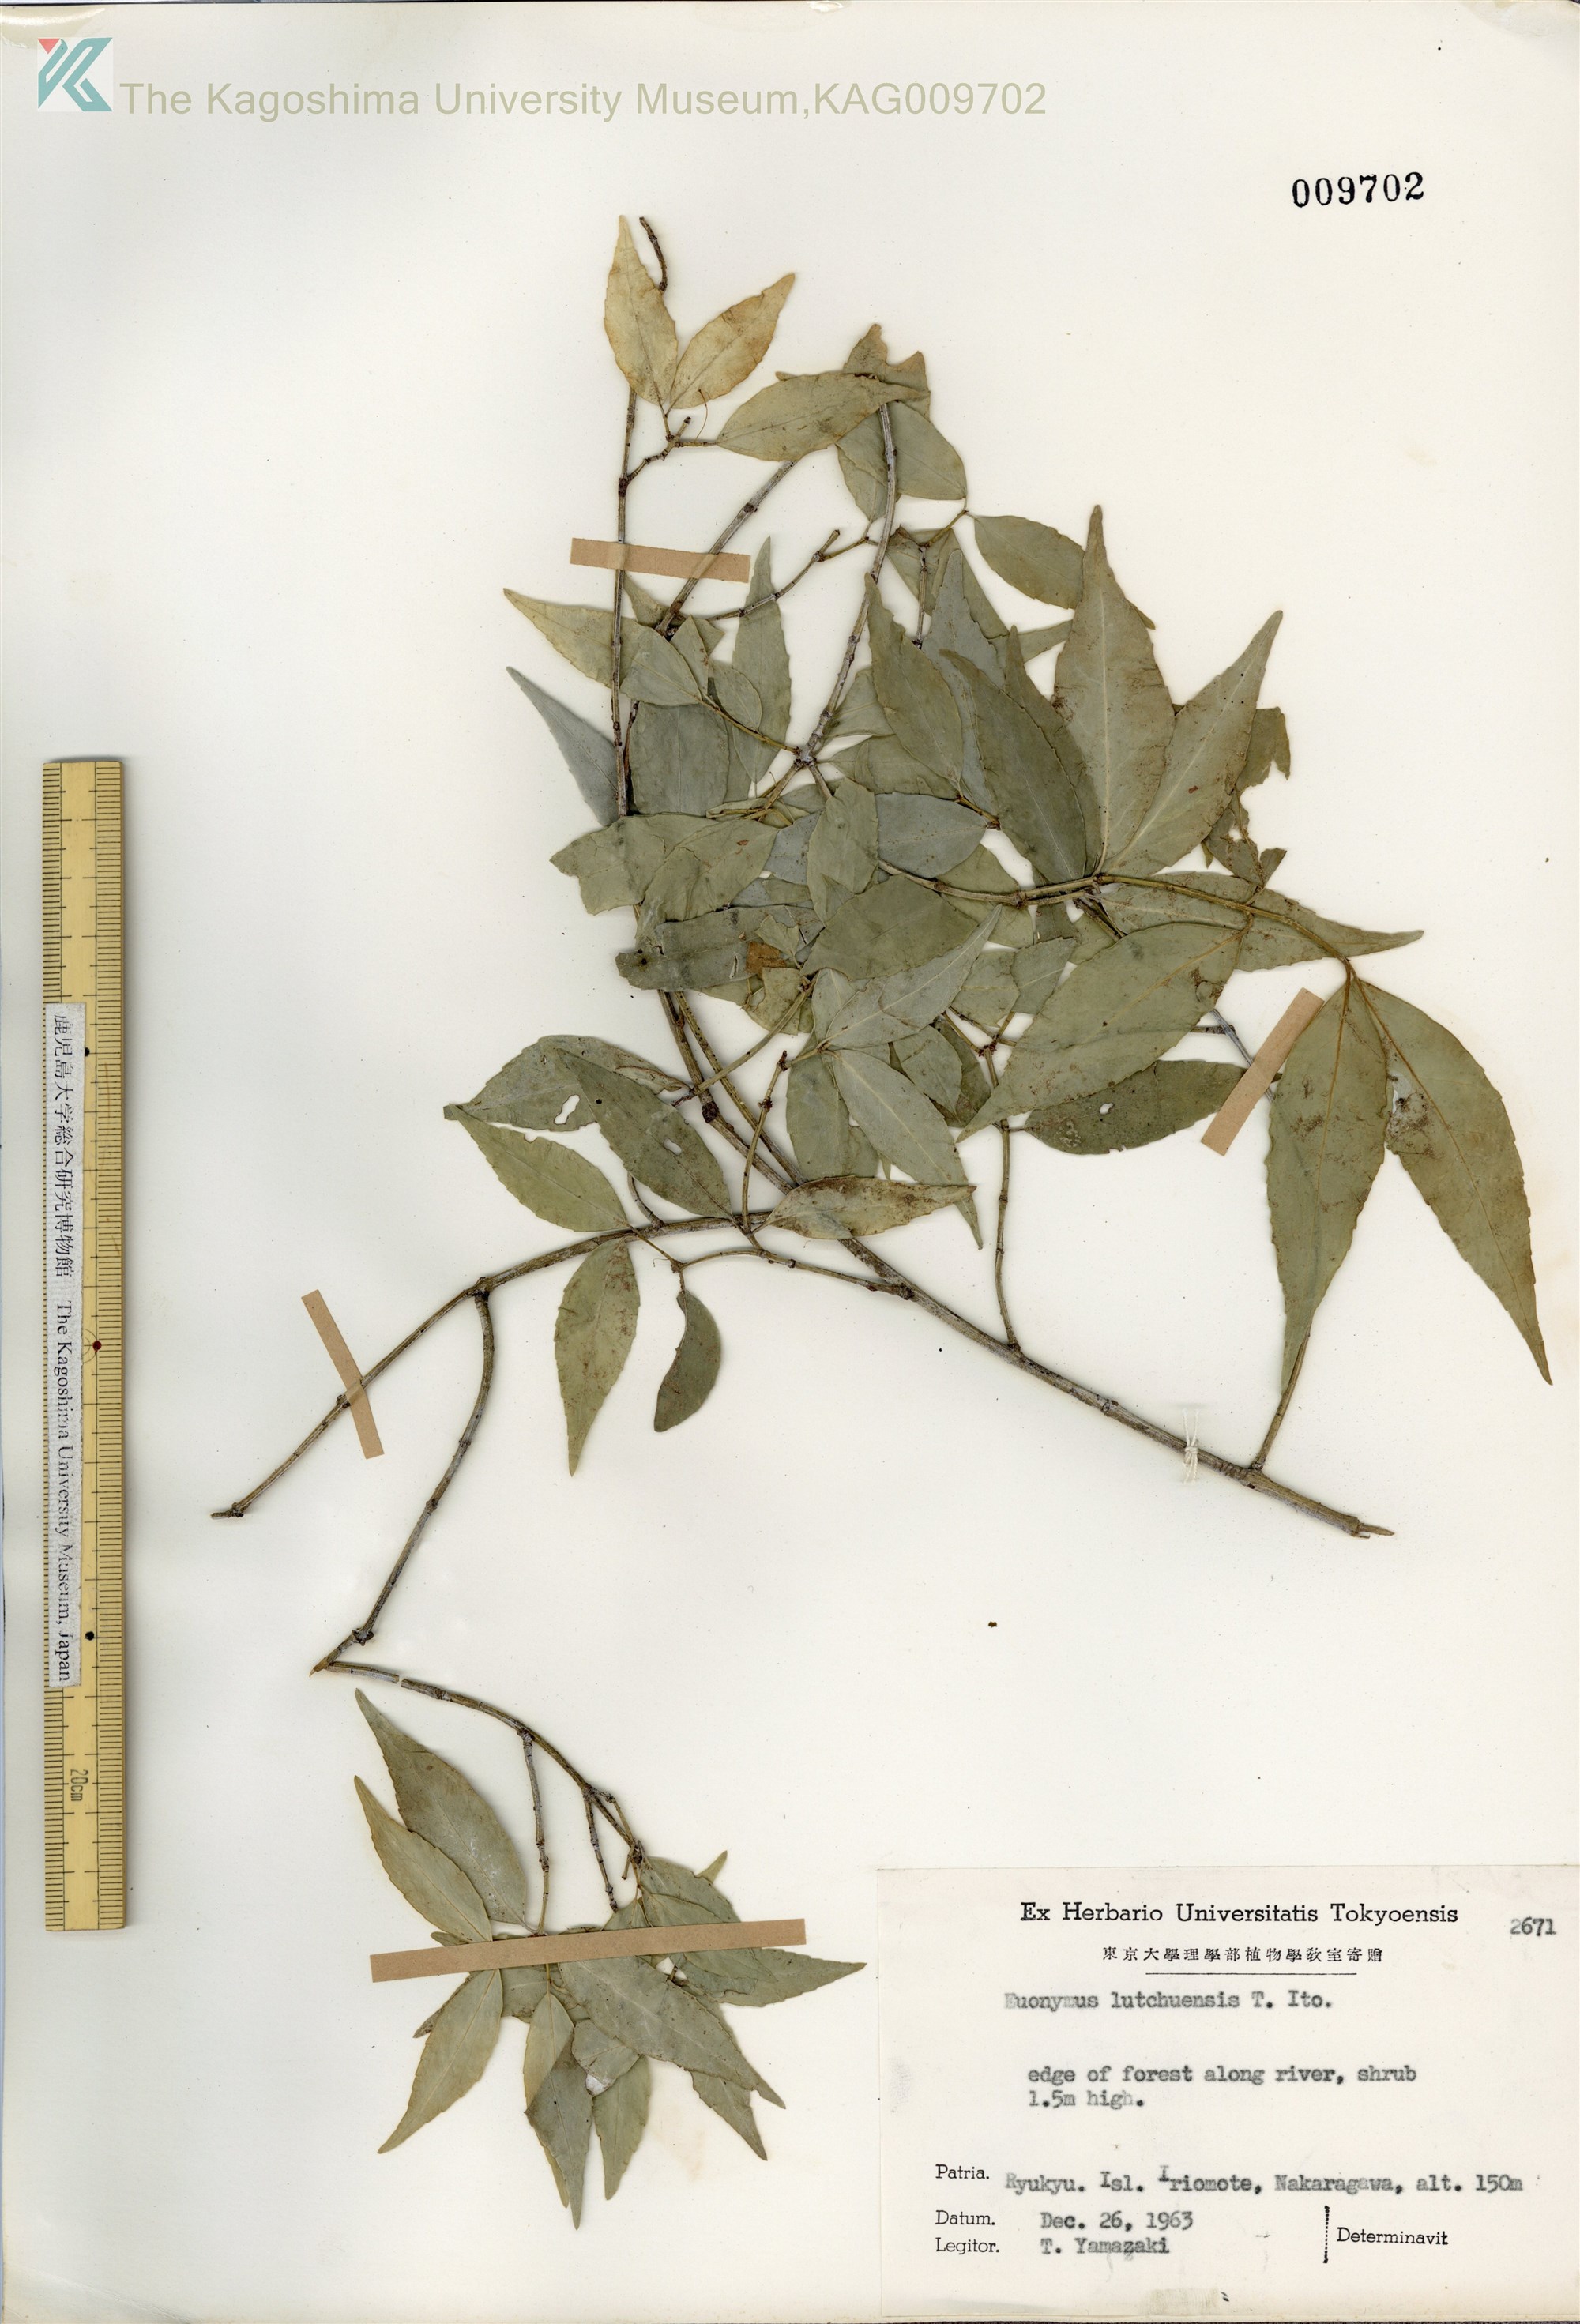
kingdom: Plantae
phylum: Tracheophyta
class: Magnoliopsida
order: Celastrales
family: Celastraceae
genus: Euonymus
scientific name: Euonymus lutchuensis
